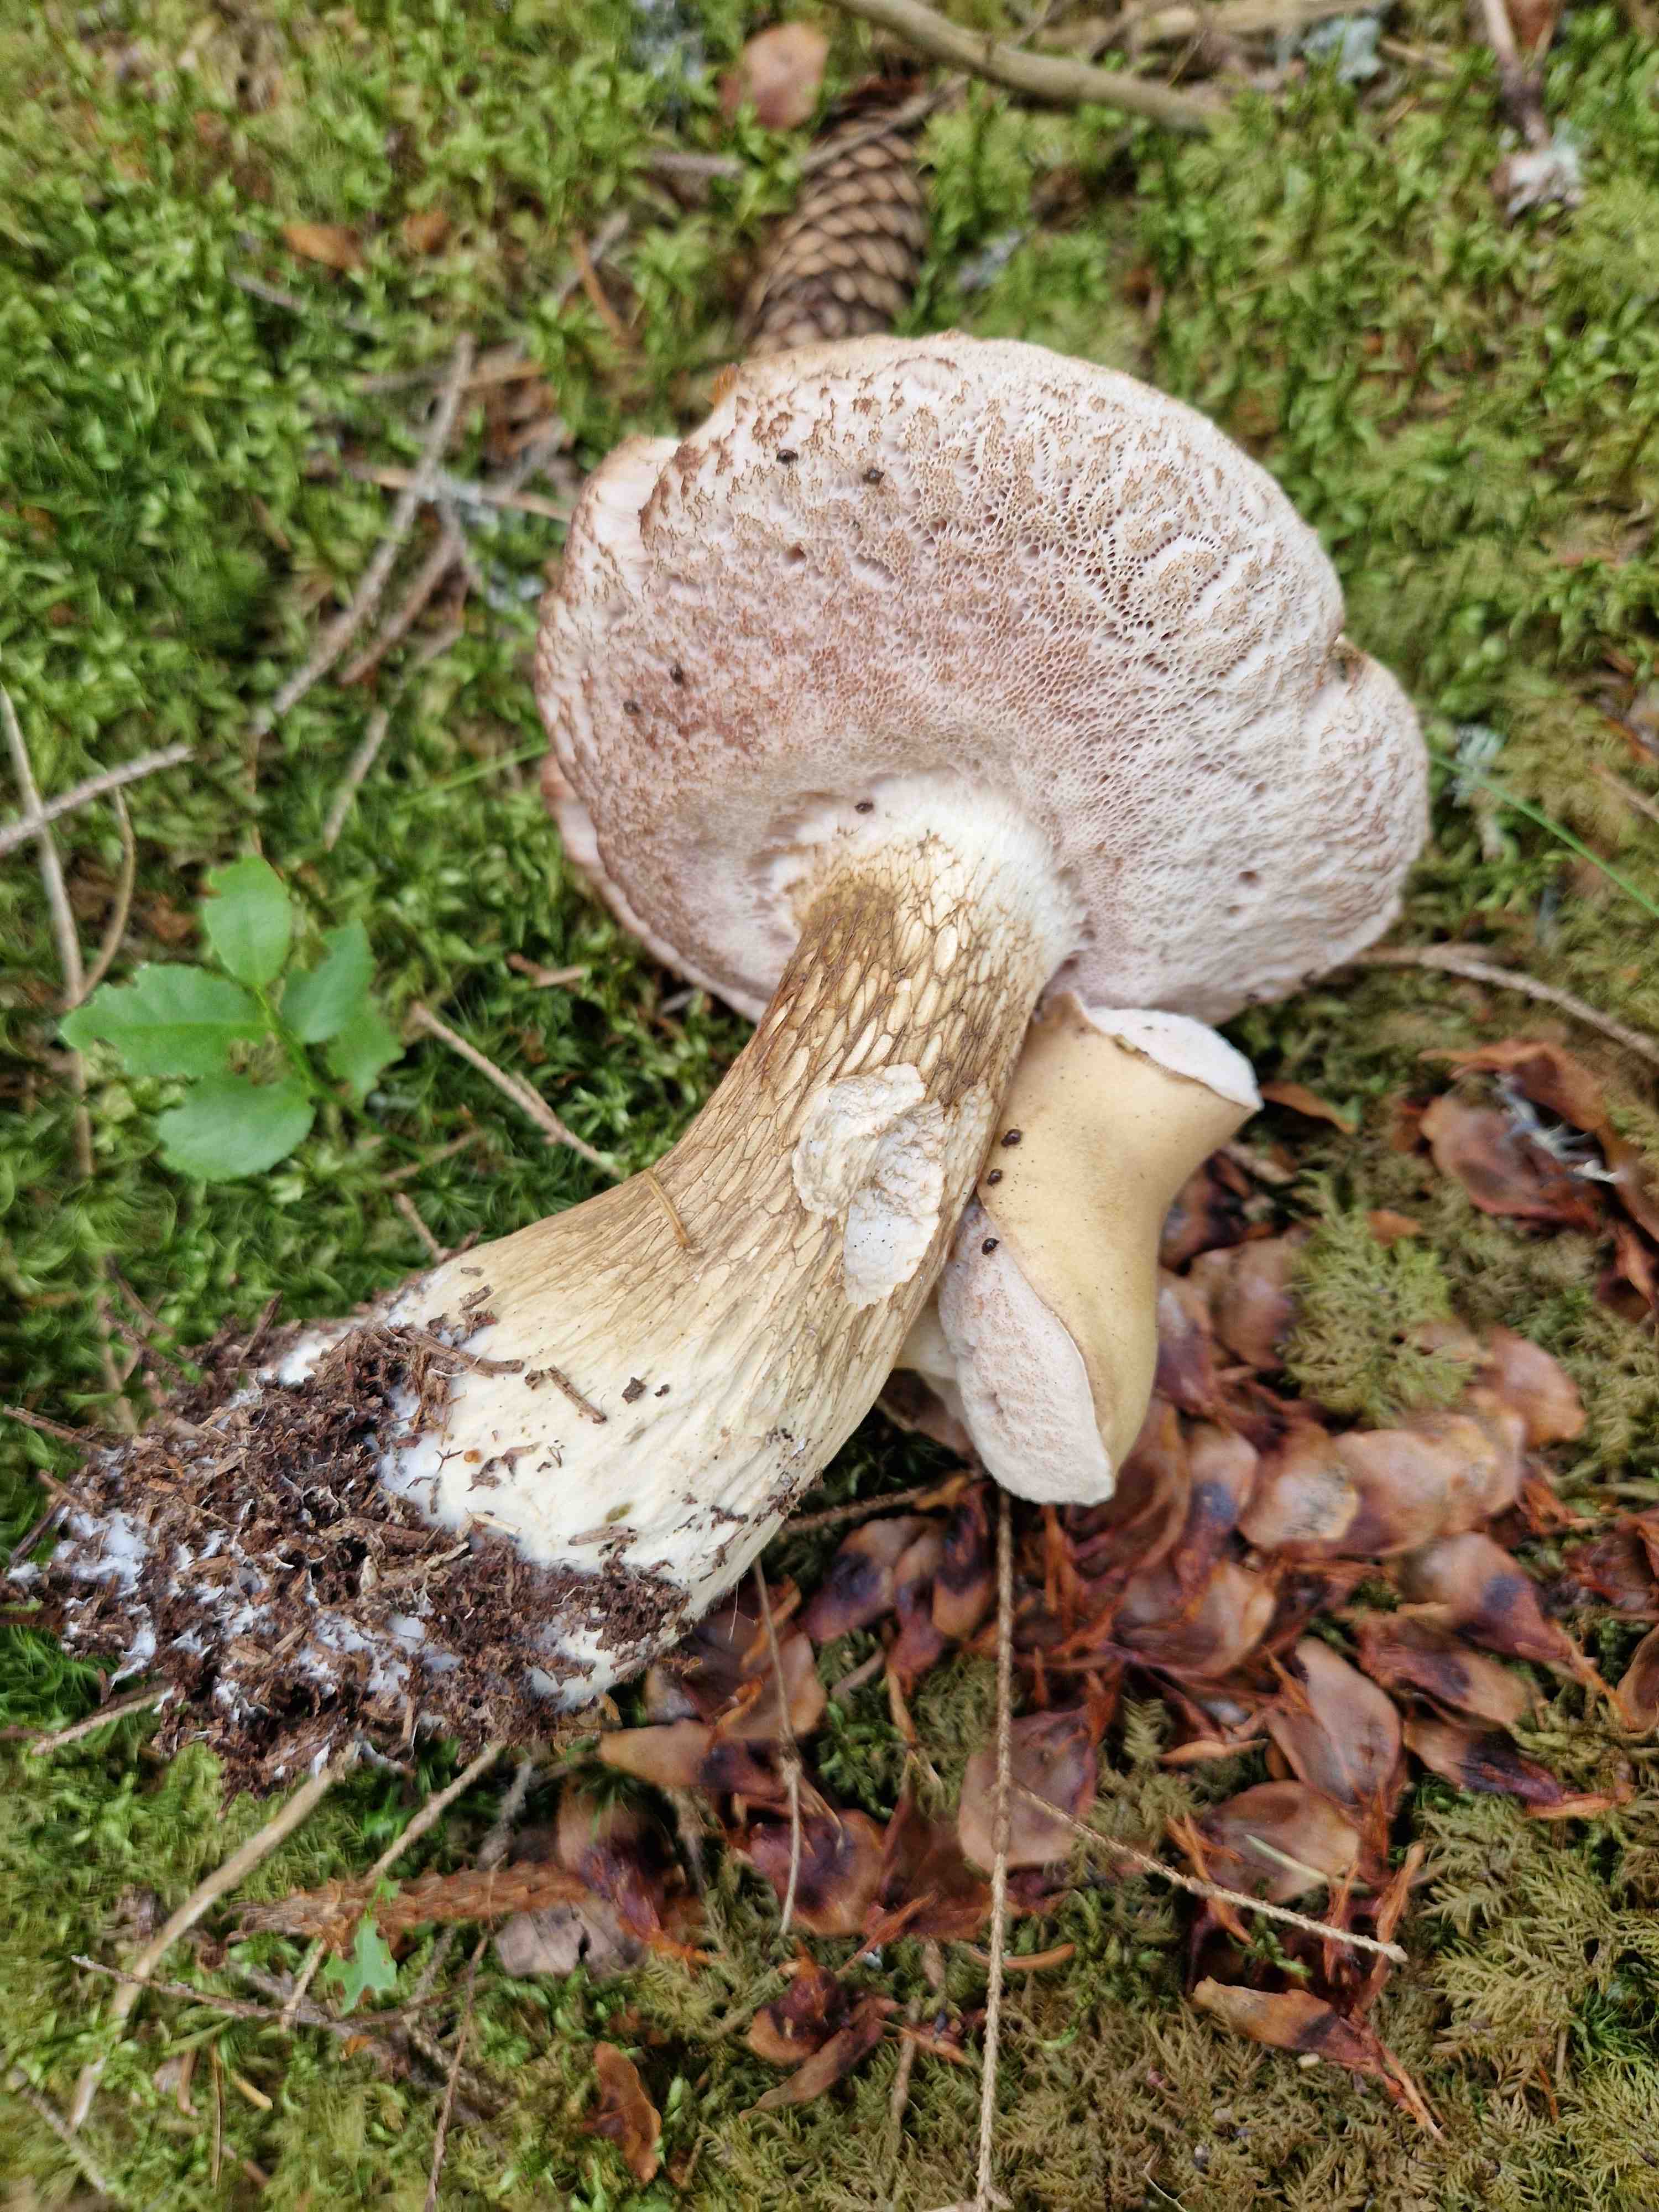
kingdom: Fungi
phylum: Basidiomycota
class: Agaricomycetes
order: Boletales
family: Boletaceae
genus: Tylopilus
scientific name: Tylopilus felleus
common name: galderørhat
